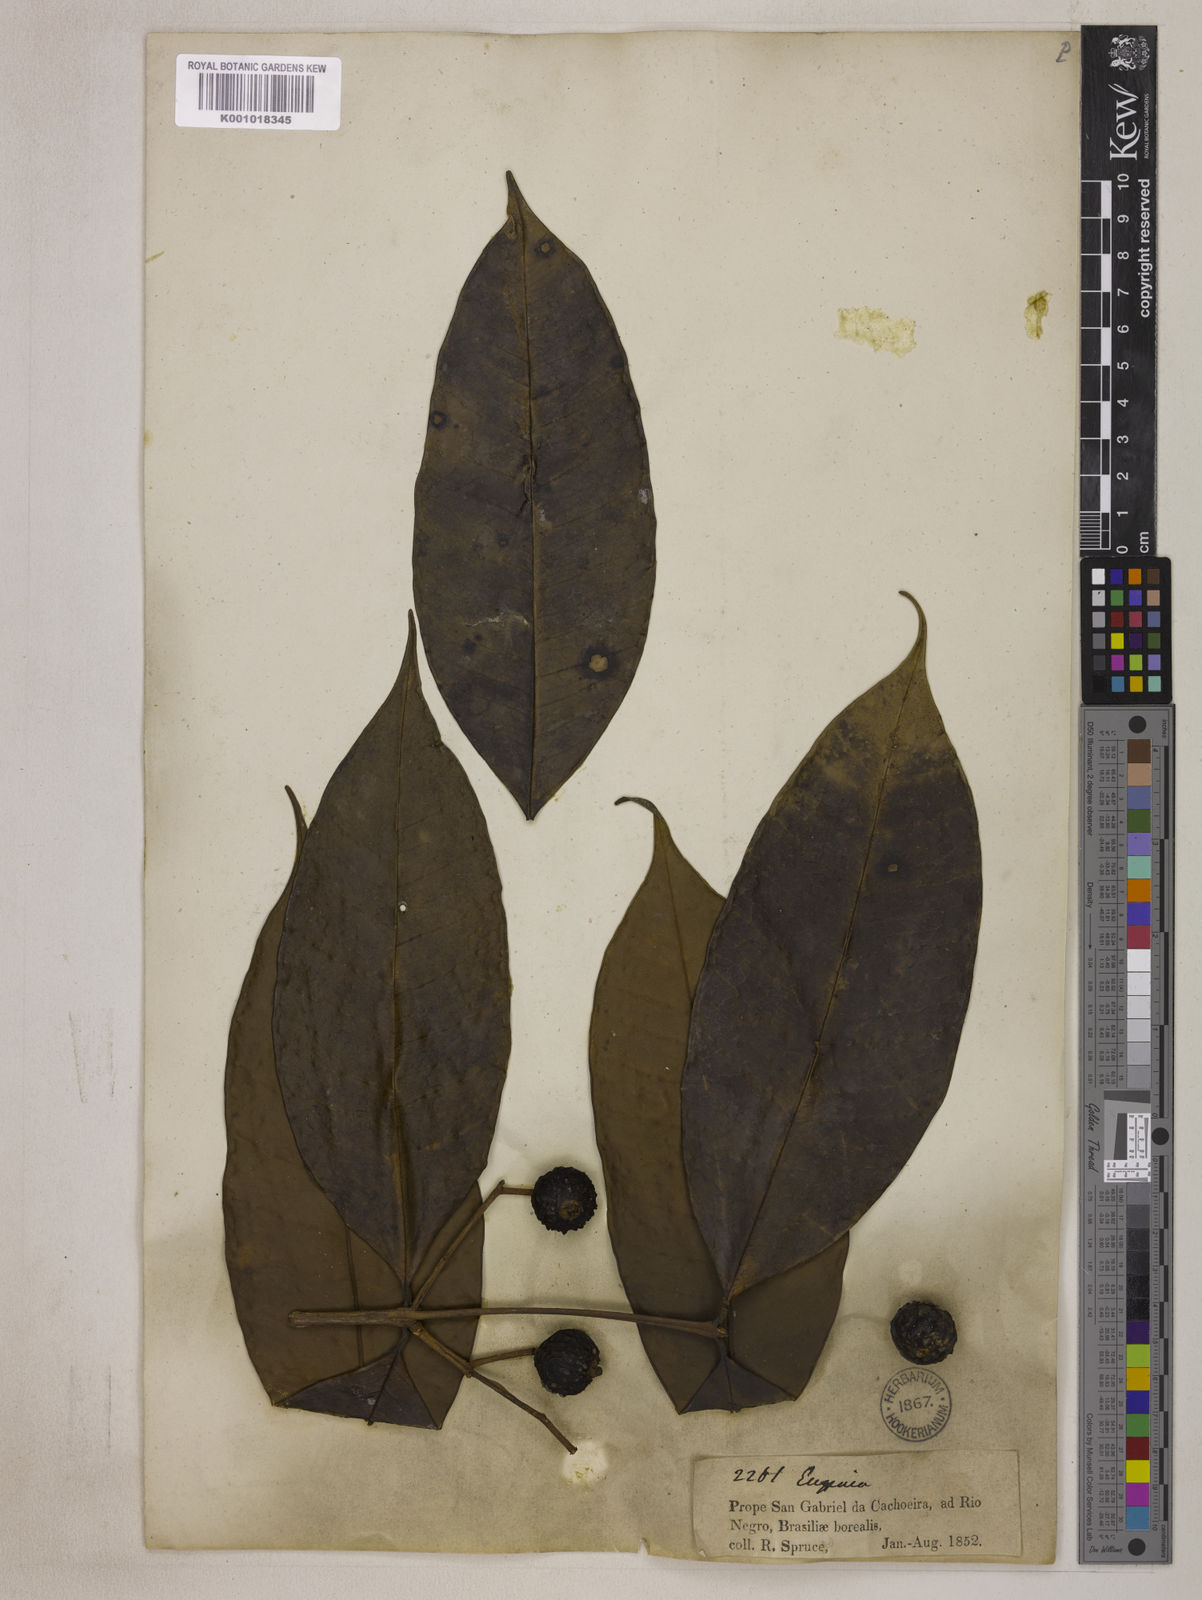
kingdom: Plantae
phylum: Tracheophyta
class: Magnoliopsida
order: Myrtales
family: Myrtaceae
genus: Eugenia
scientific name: Eugenia muricata
